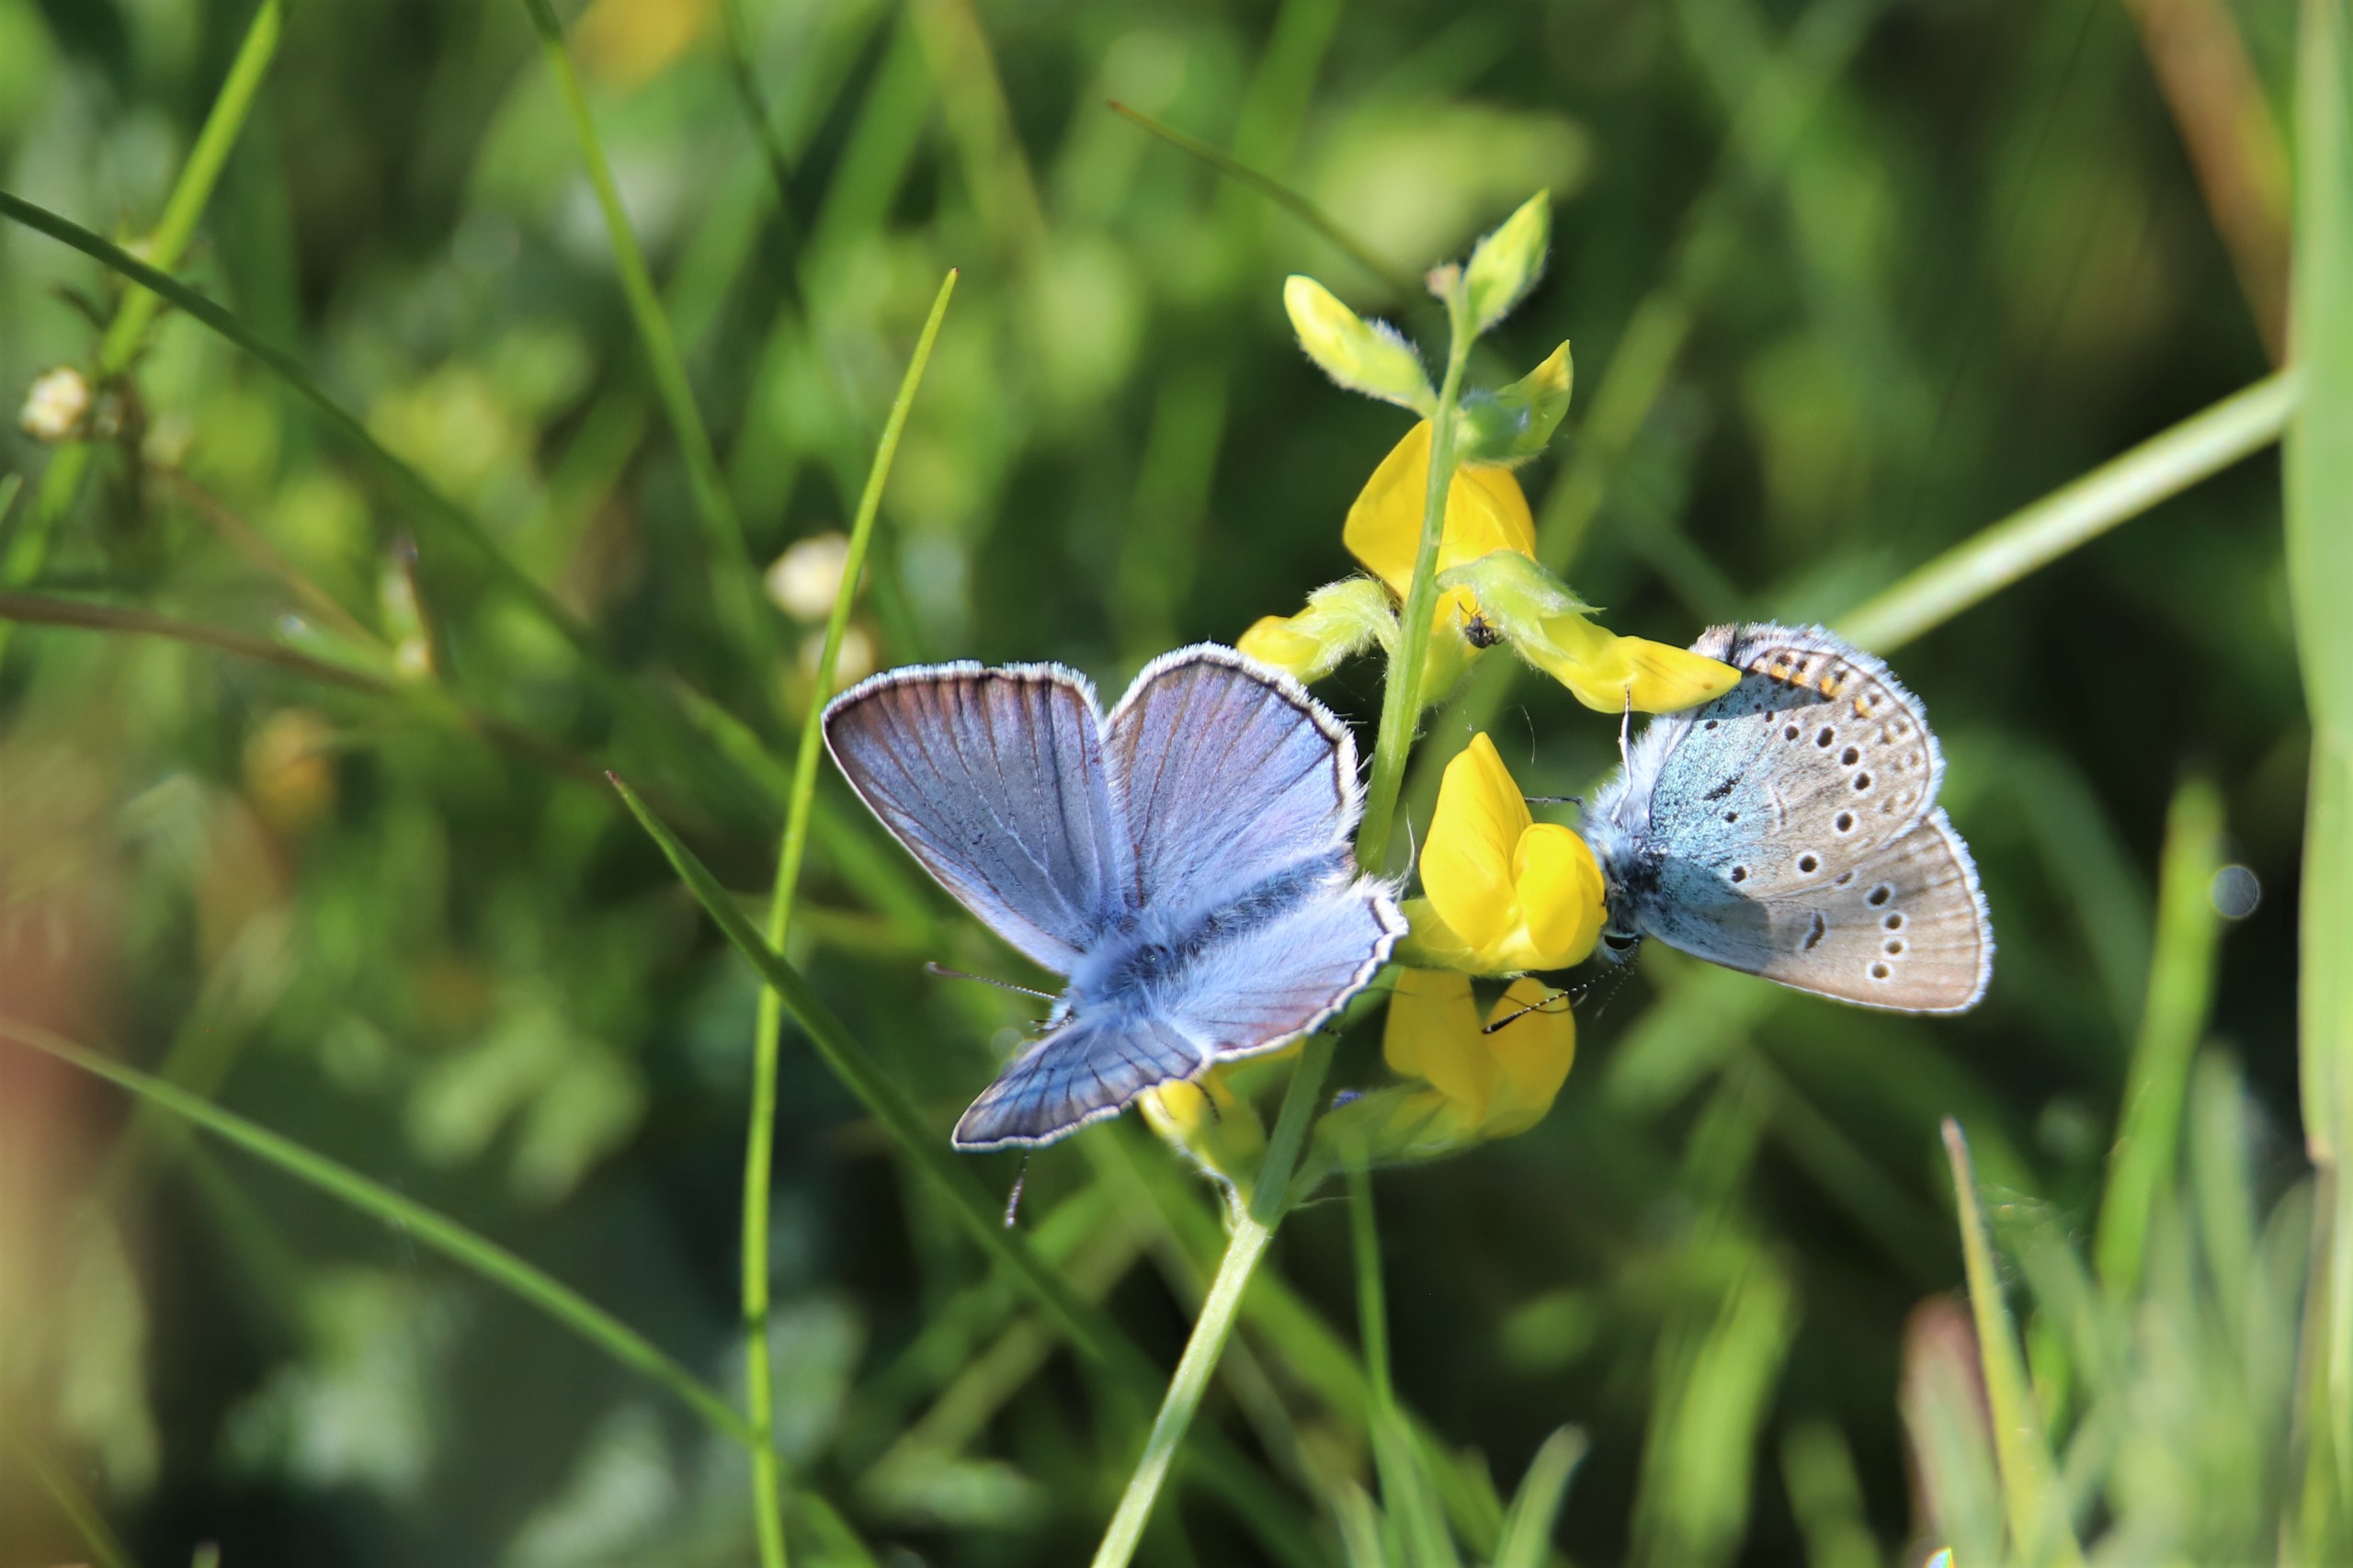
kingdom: Animalia
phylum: Arthropoda
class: Insecta
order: Lepidoptera
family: Lycaenidae
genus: Plebejus
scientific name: Plebejus amanda
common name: Isblåfugl
